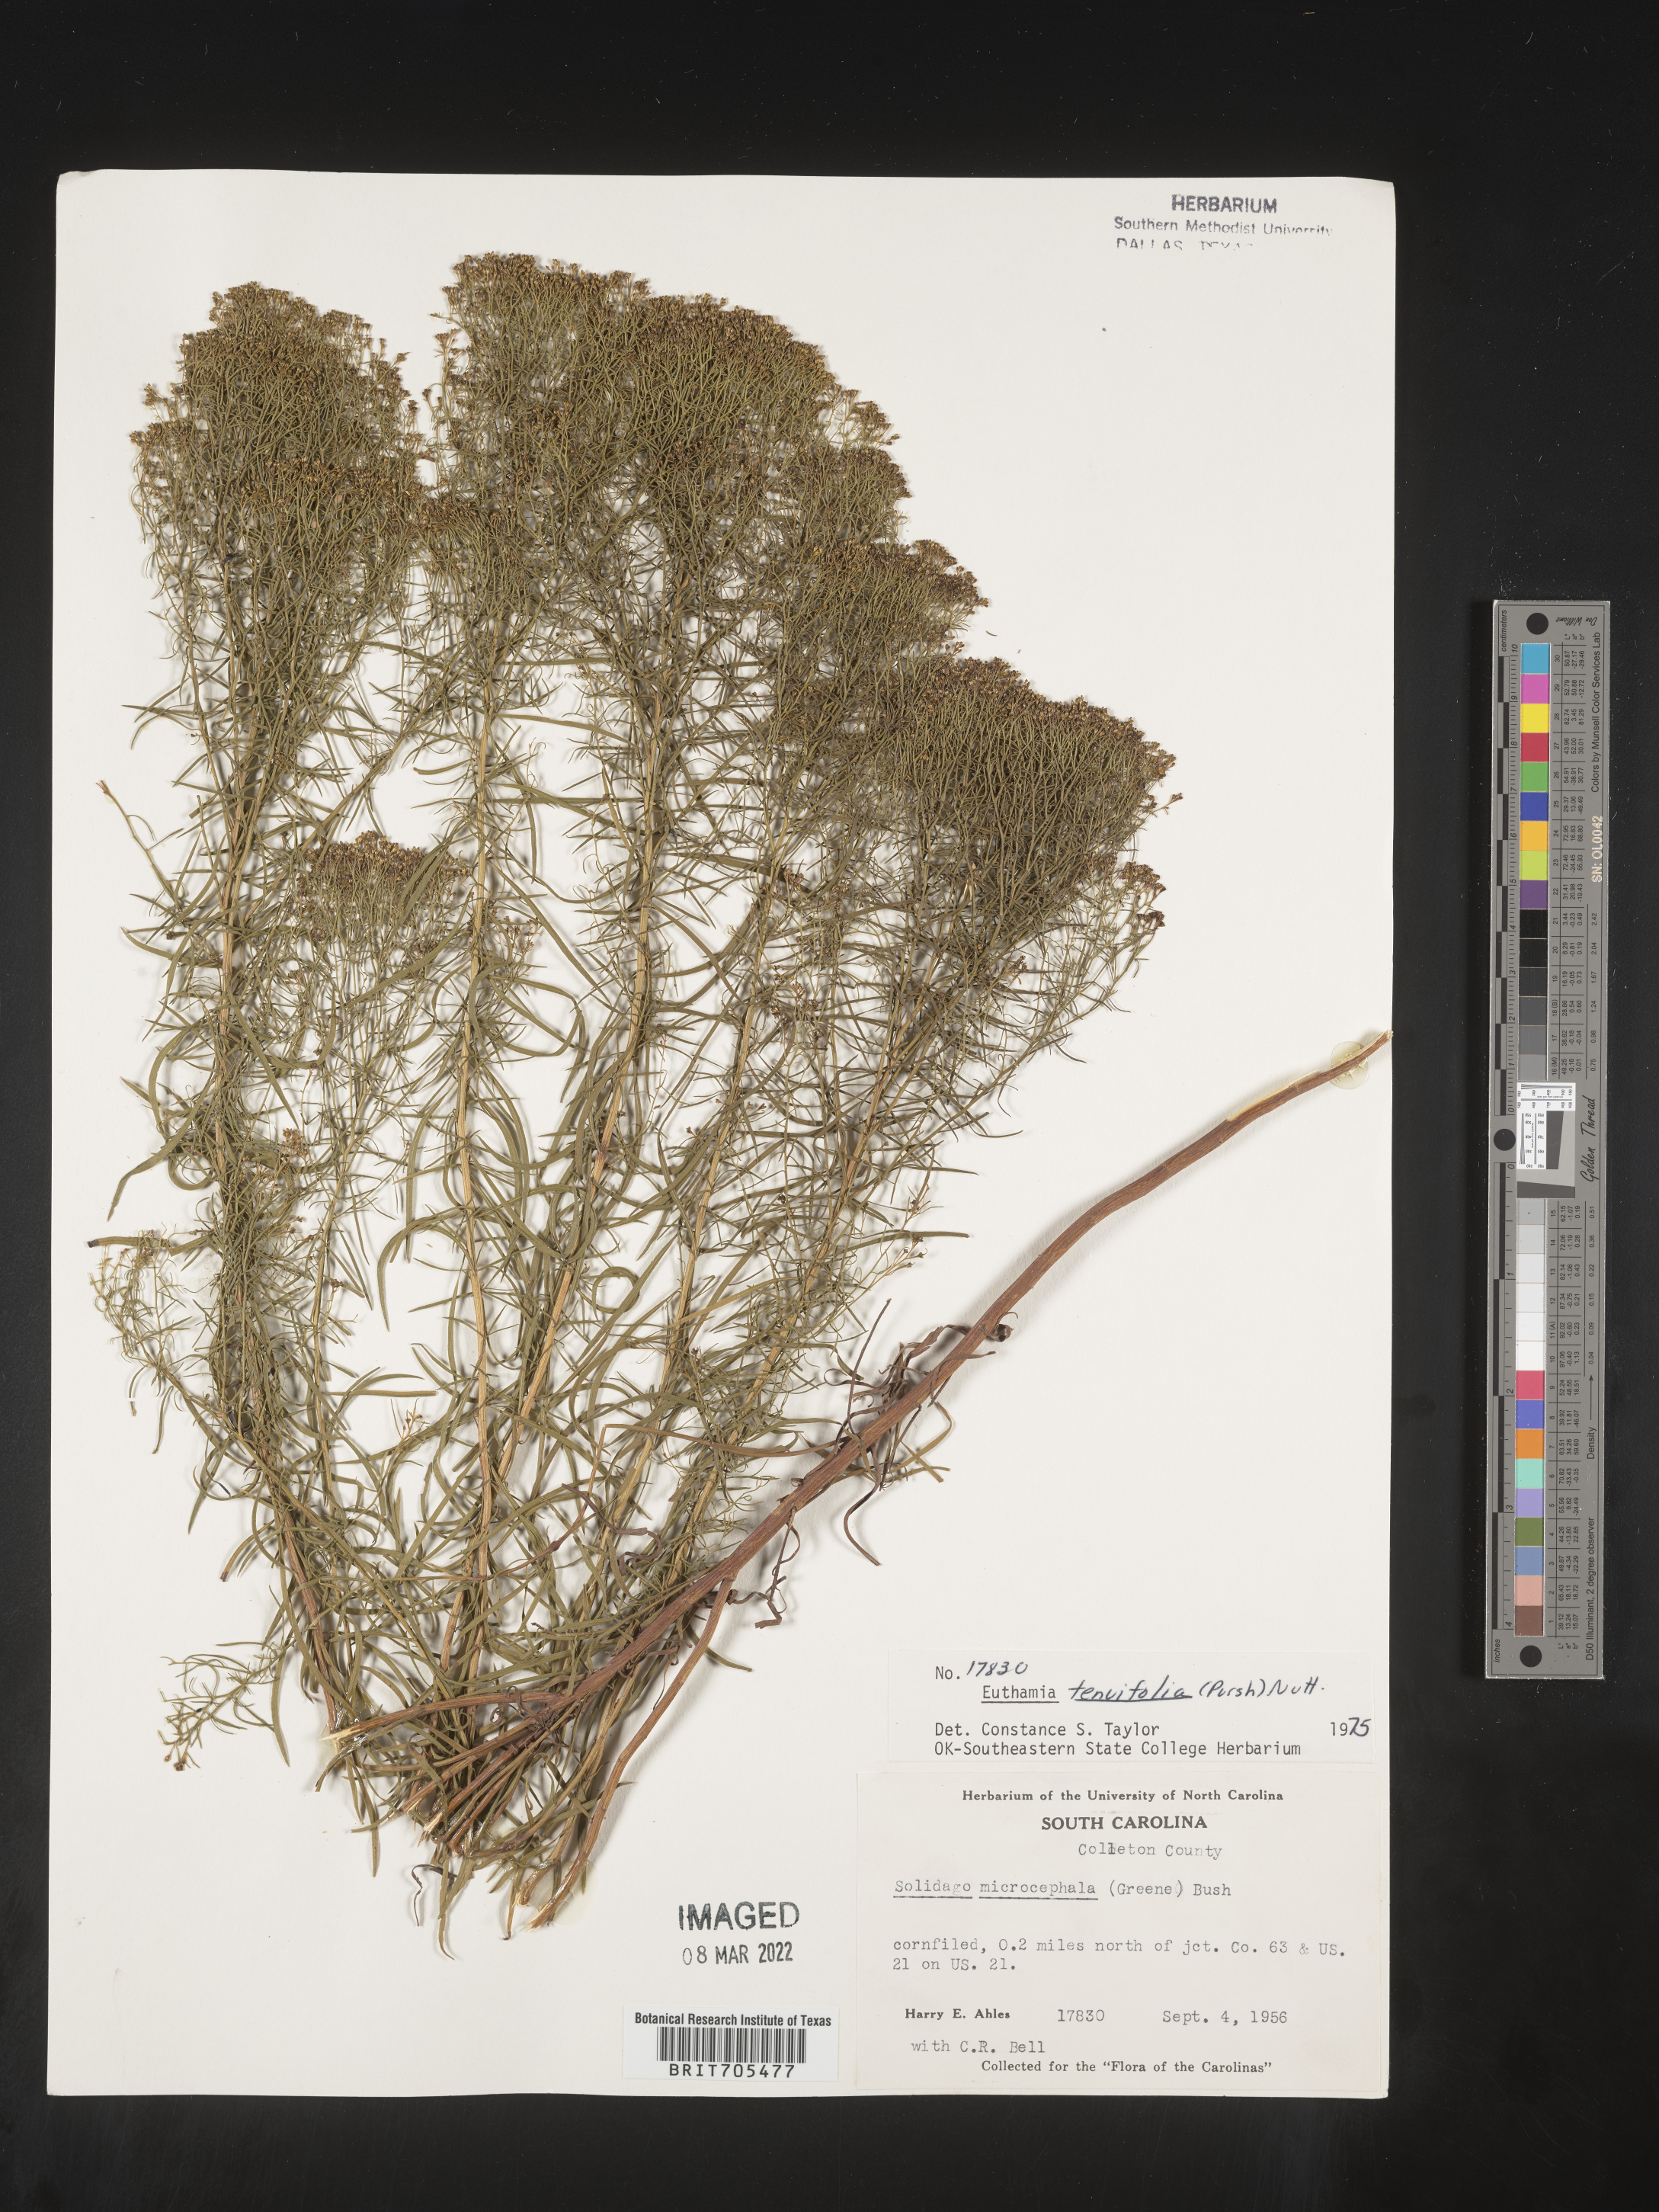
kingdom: Plantae
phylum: Tracheophyta
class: Magnoliopsida
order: Asterales
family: Asteraceae
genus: Euthamia
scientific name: Euthamia caroliniana
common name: Coastal plain goldentop
